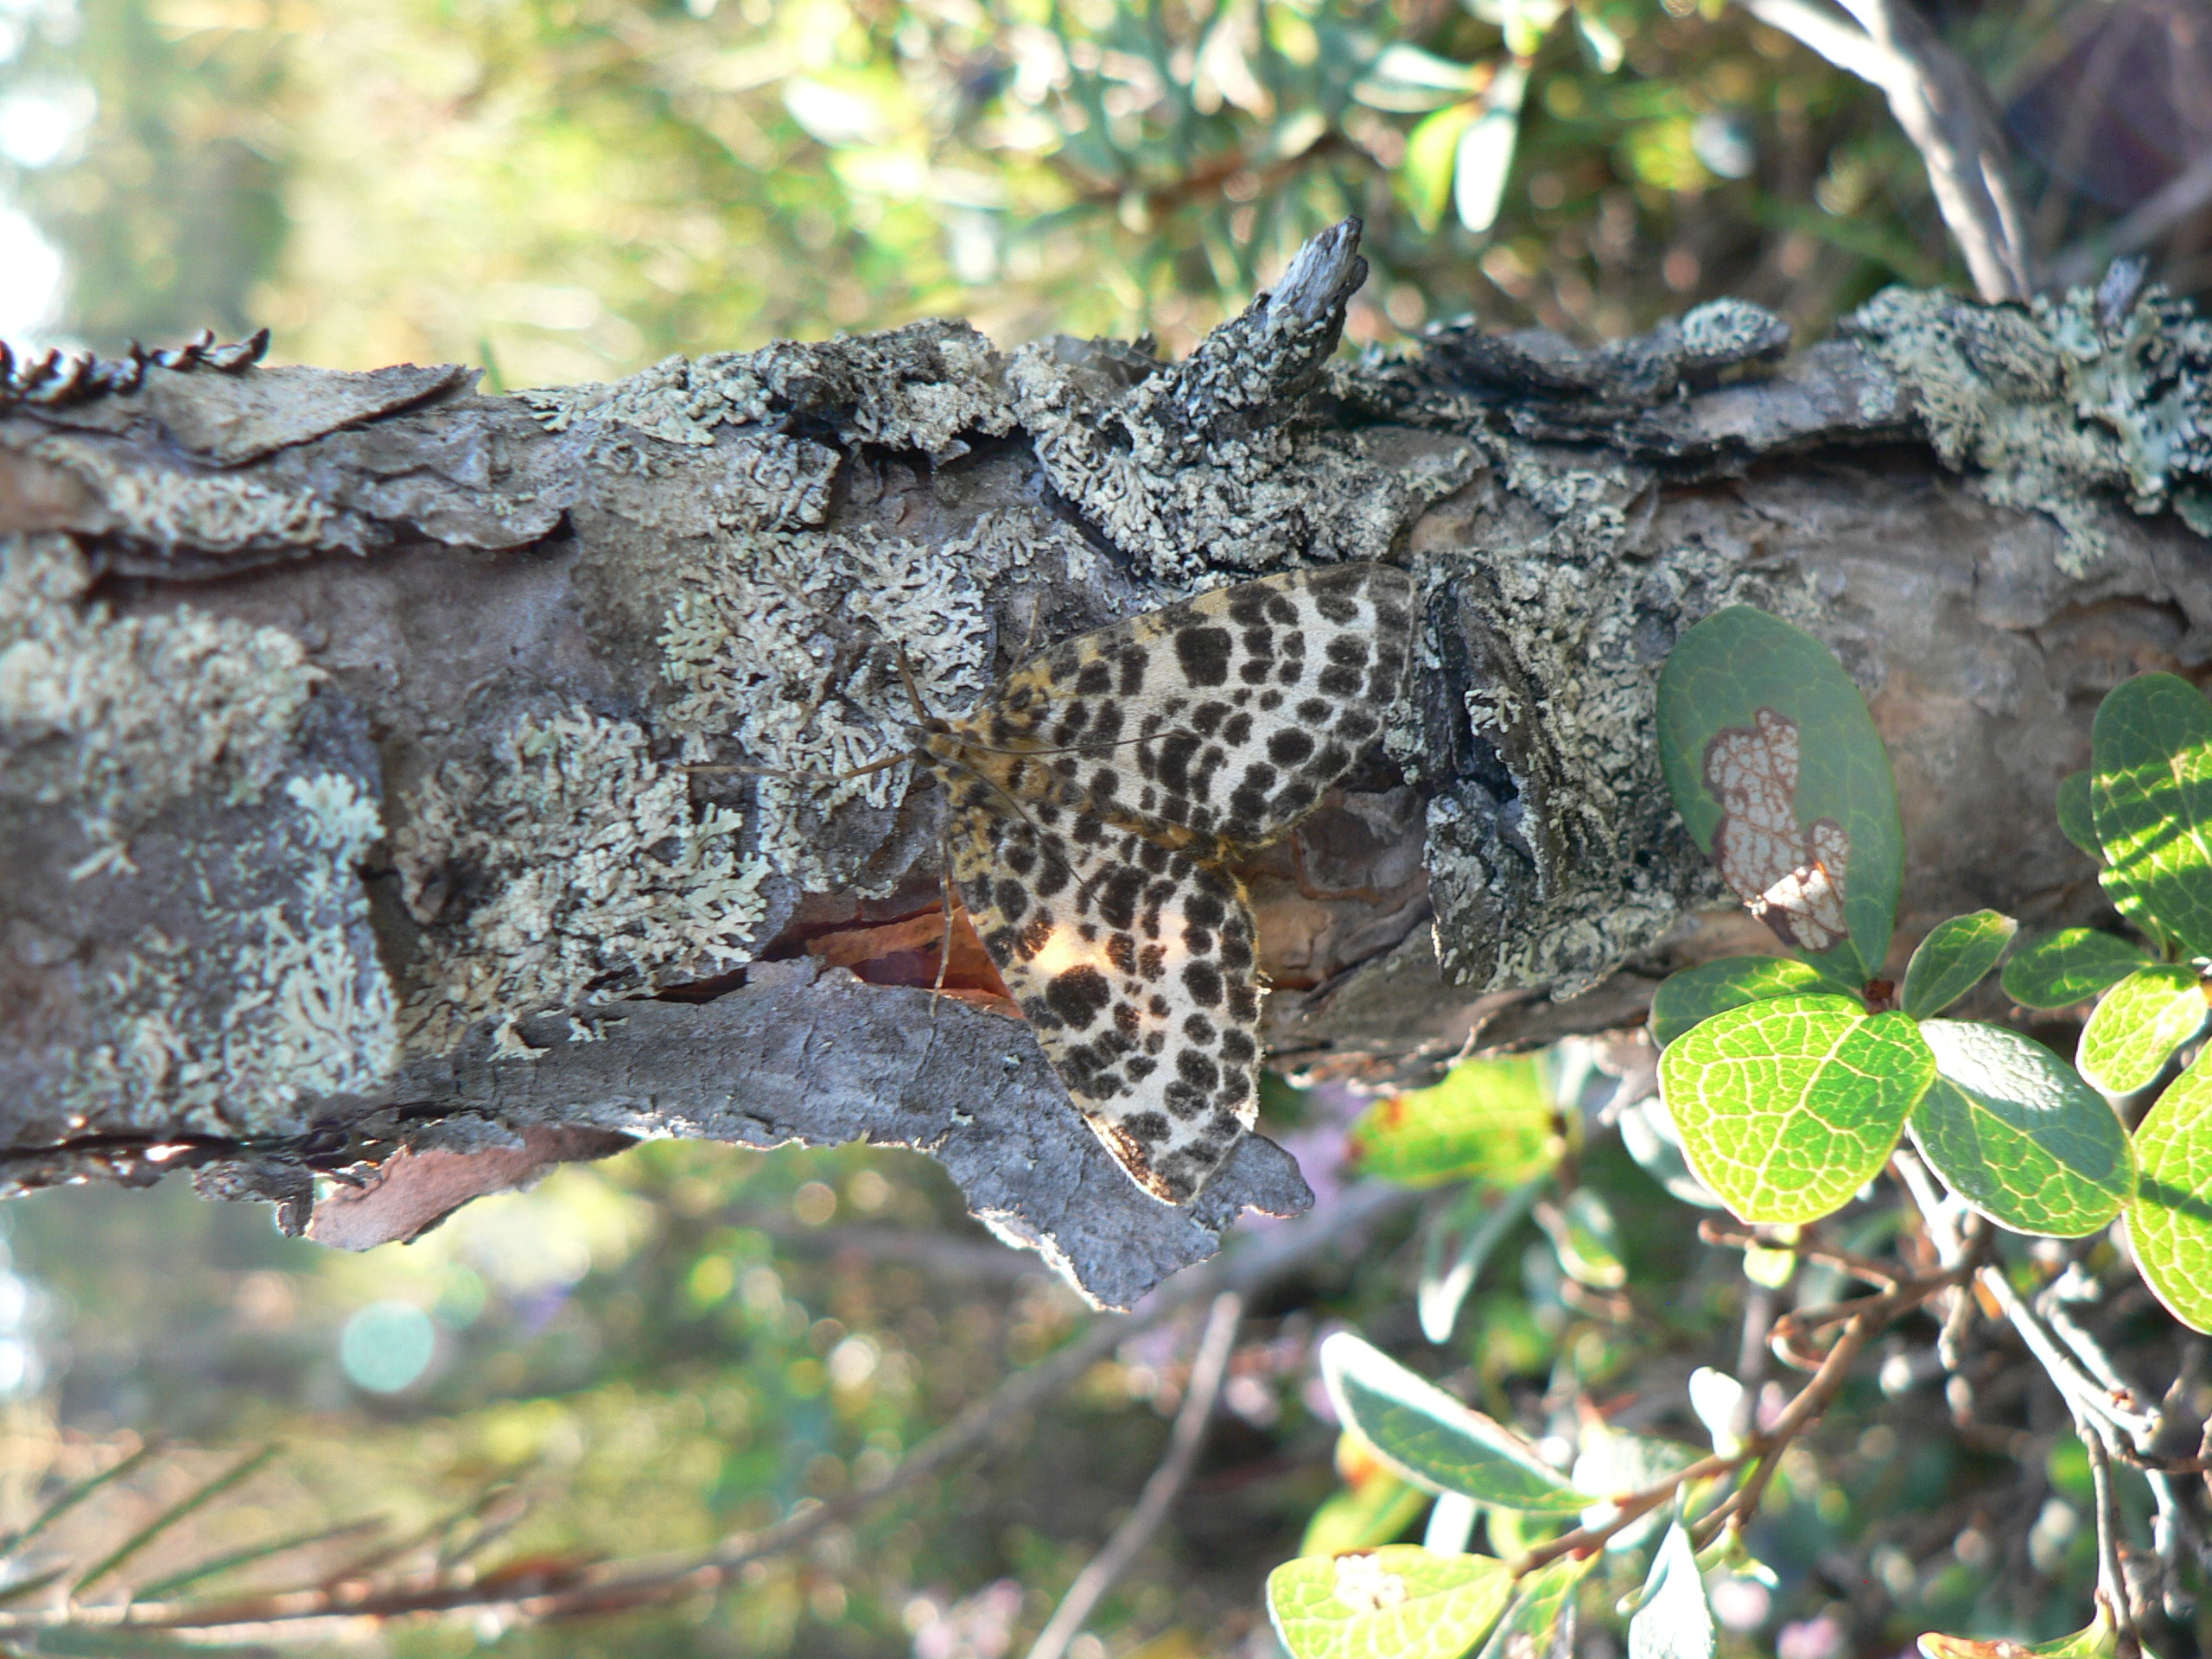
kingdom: Animalia
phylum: Arthropoda
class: Insecta
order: Lepidoptera
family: Geometridae
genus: Arichanna
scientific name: Arichanna melanaria
